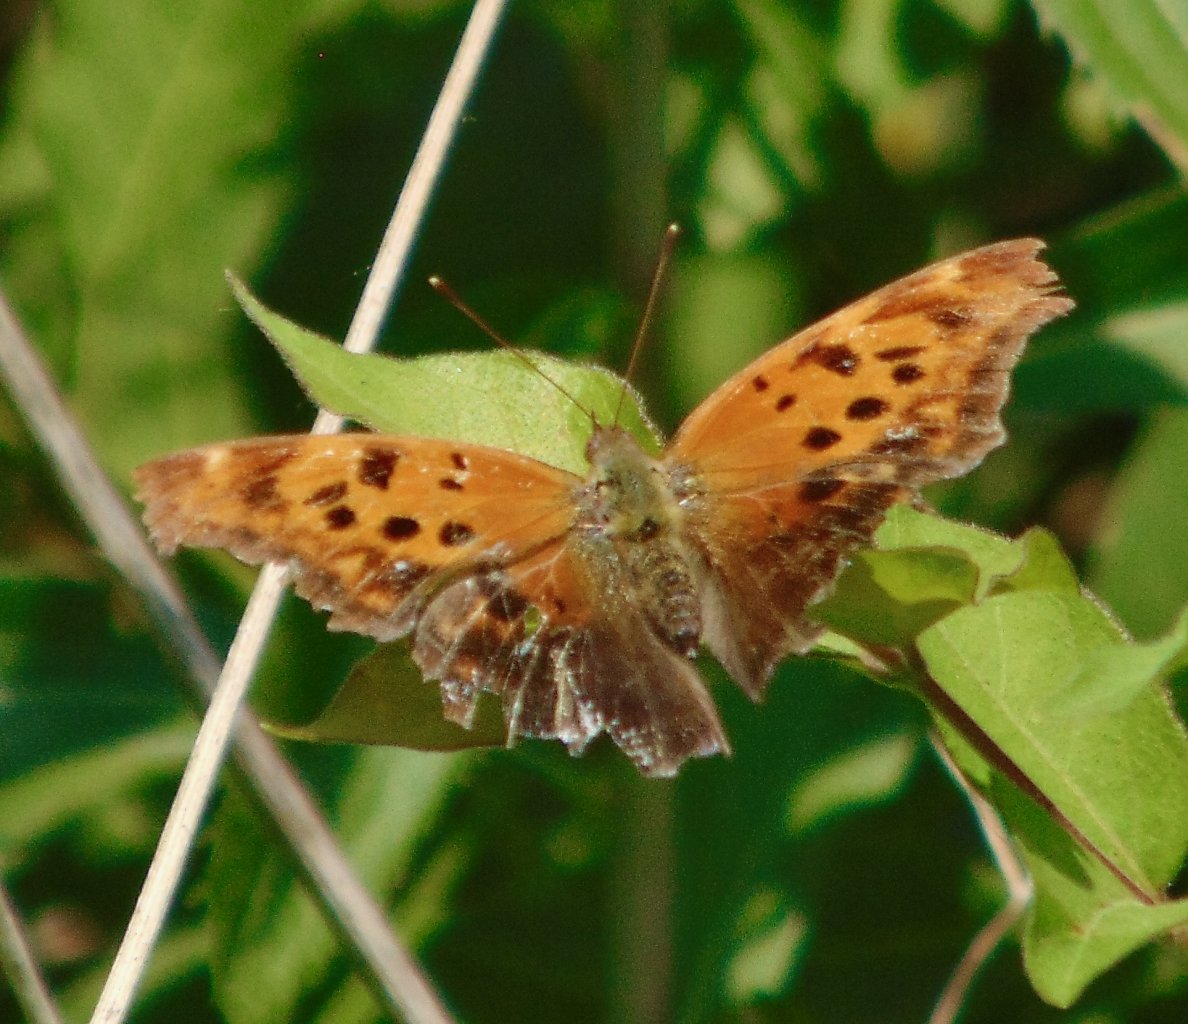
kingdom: Animalia
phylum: Arthropoda
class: Insecta
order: Lepidoptera
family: Nymphalidae
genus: Polygonia
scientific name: Polygonia interrogationis
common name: Question Mark
